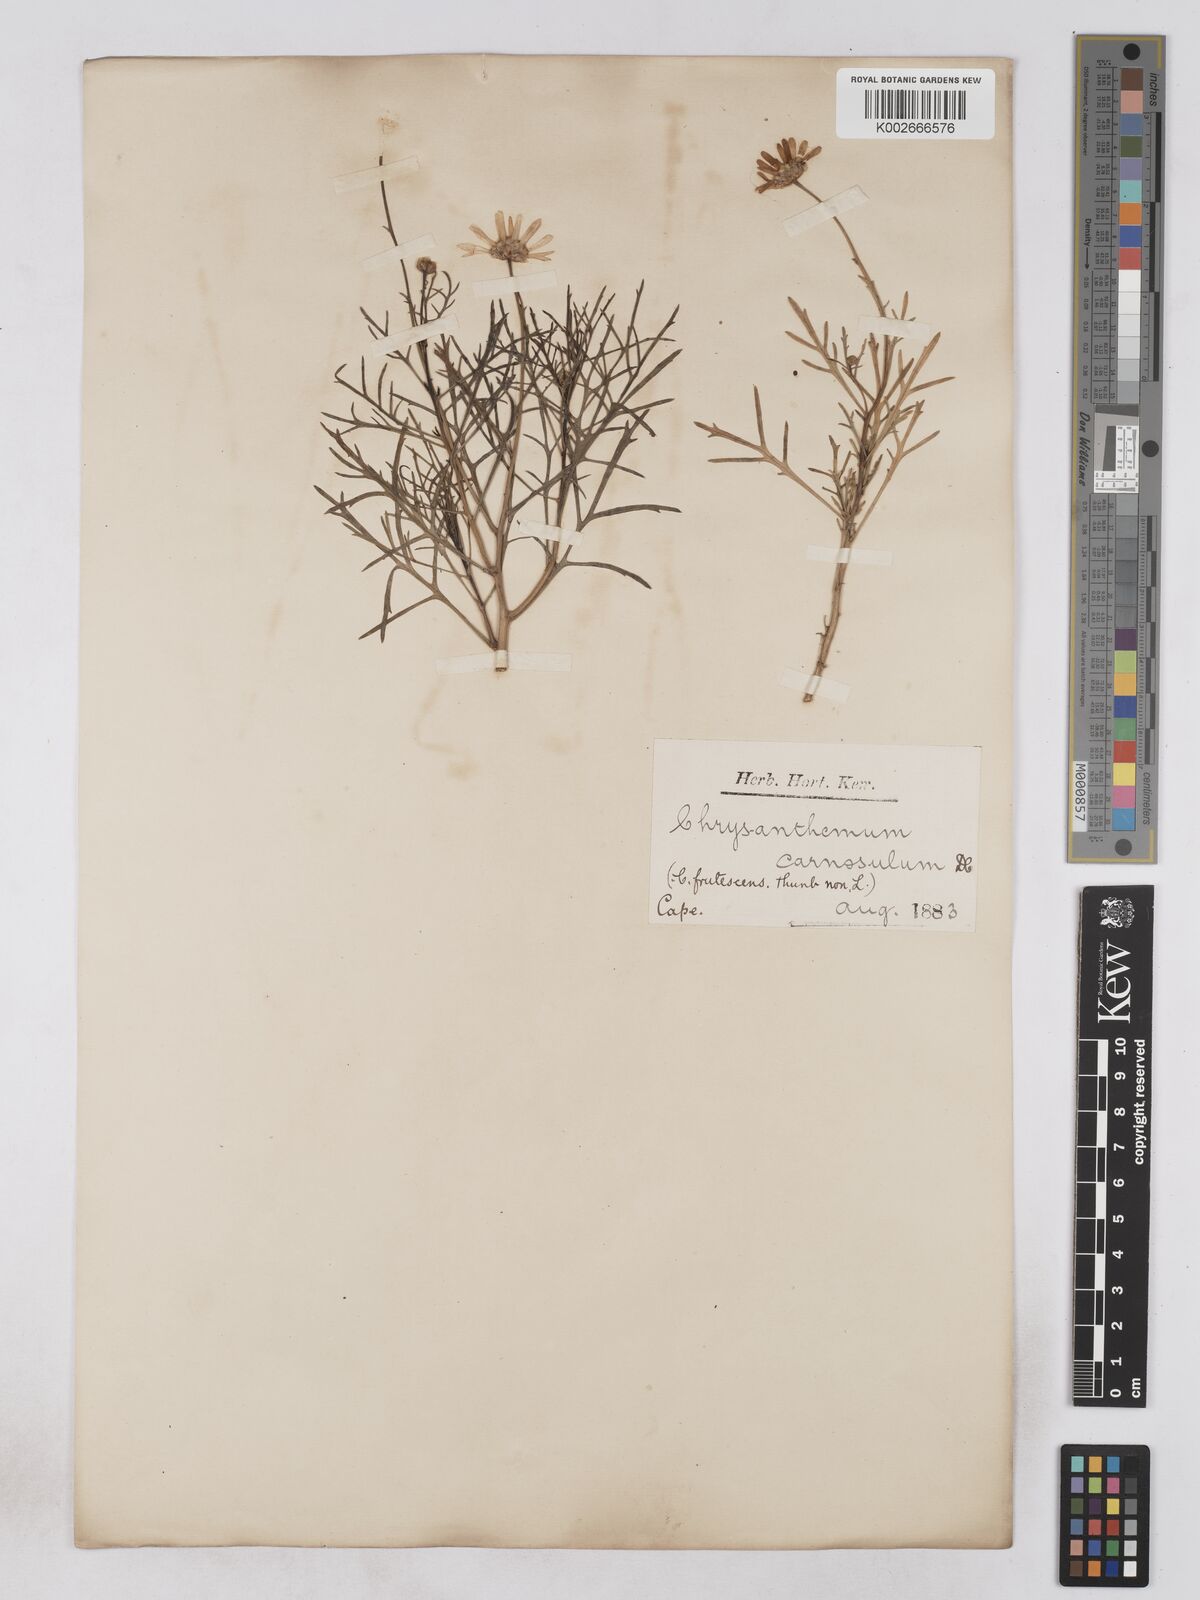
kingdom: Plantae
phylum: Tracheophyta
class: Magnoliopsida
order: Asterales
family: Asteraceae
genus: Argyranthemum
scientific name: Argyranthemum frutescens
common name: Paris daisy
